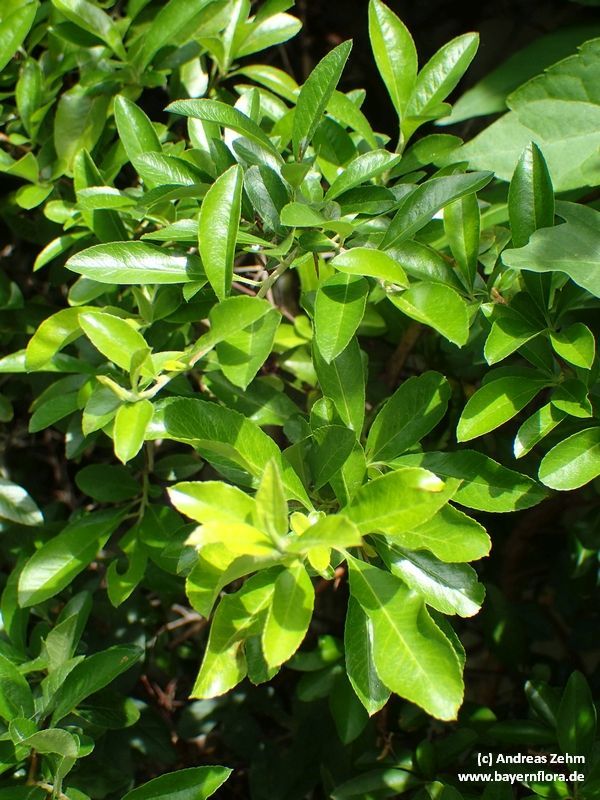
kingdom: Plantae
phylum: Tracheophyta
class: Magnoliopsida
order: Rosales
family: Rosaceae
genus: Pyracantha
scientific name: Pyracantha coccinea
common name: Firethorn
